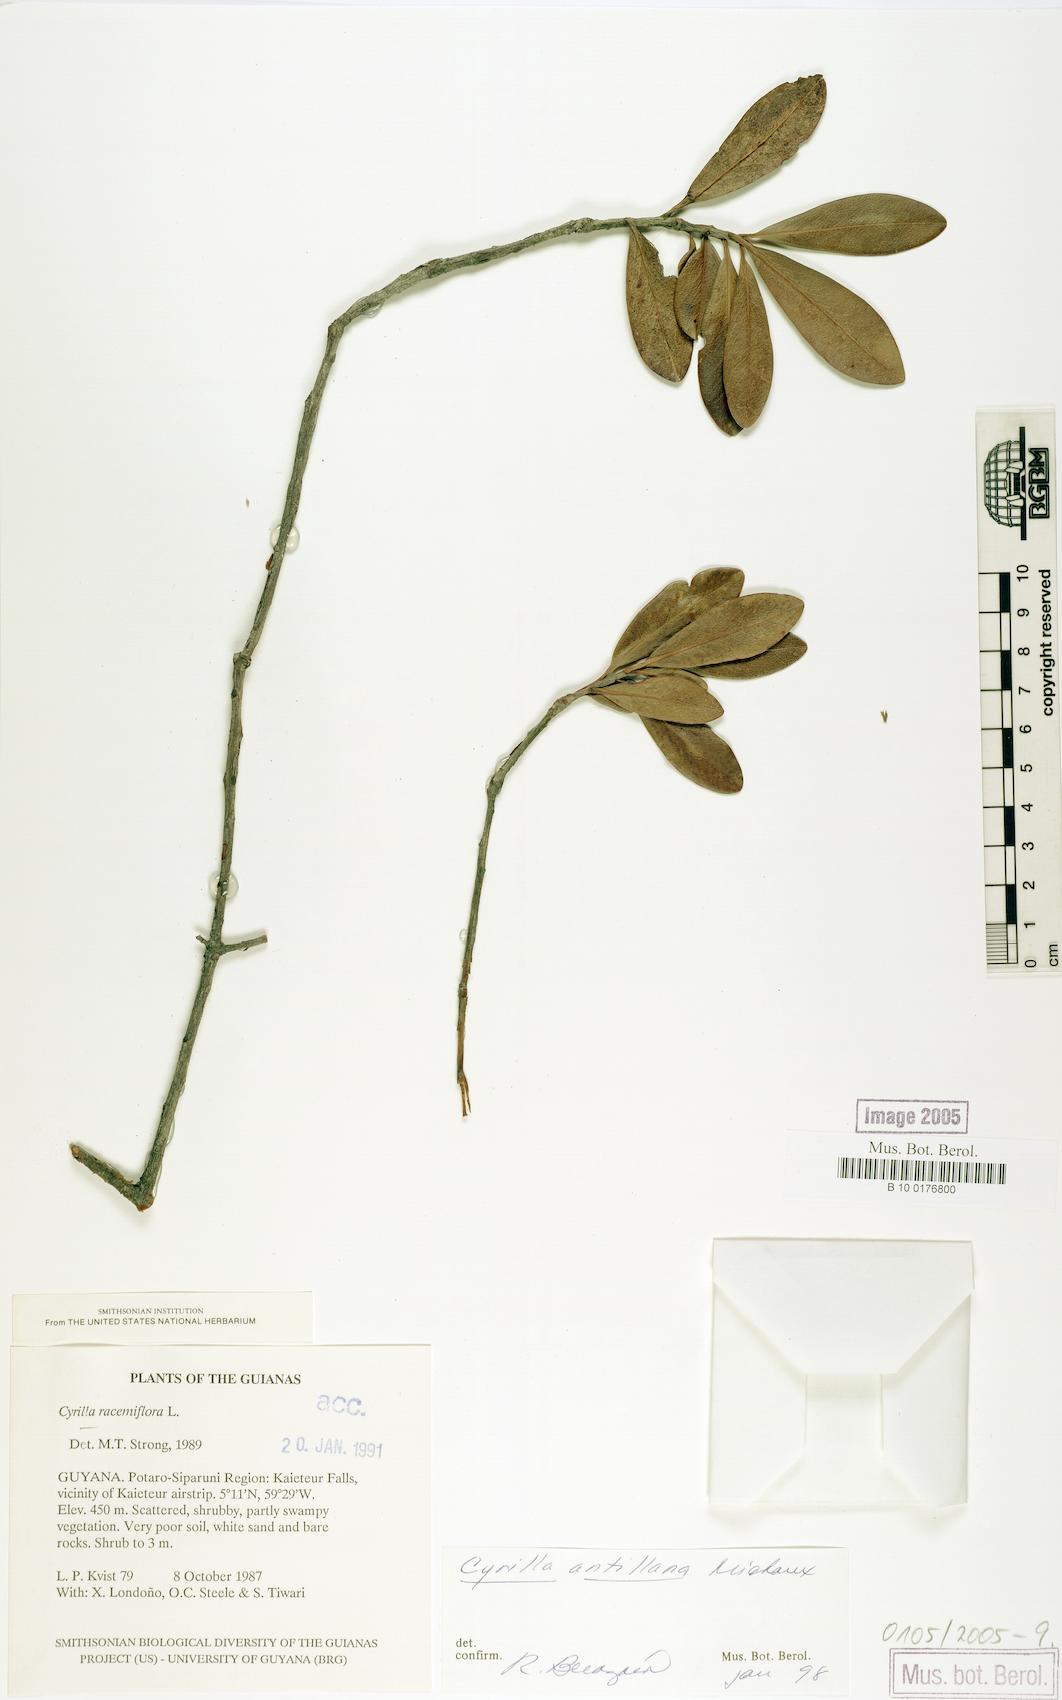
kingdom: Plantae
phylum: Tracheophyta
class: Magnoliopsida
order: Ericales
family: Cyrillaceae
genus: Cyrilla
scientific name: Cyrilla racemiflora
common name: Black titi
